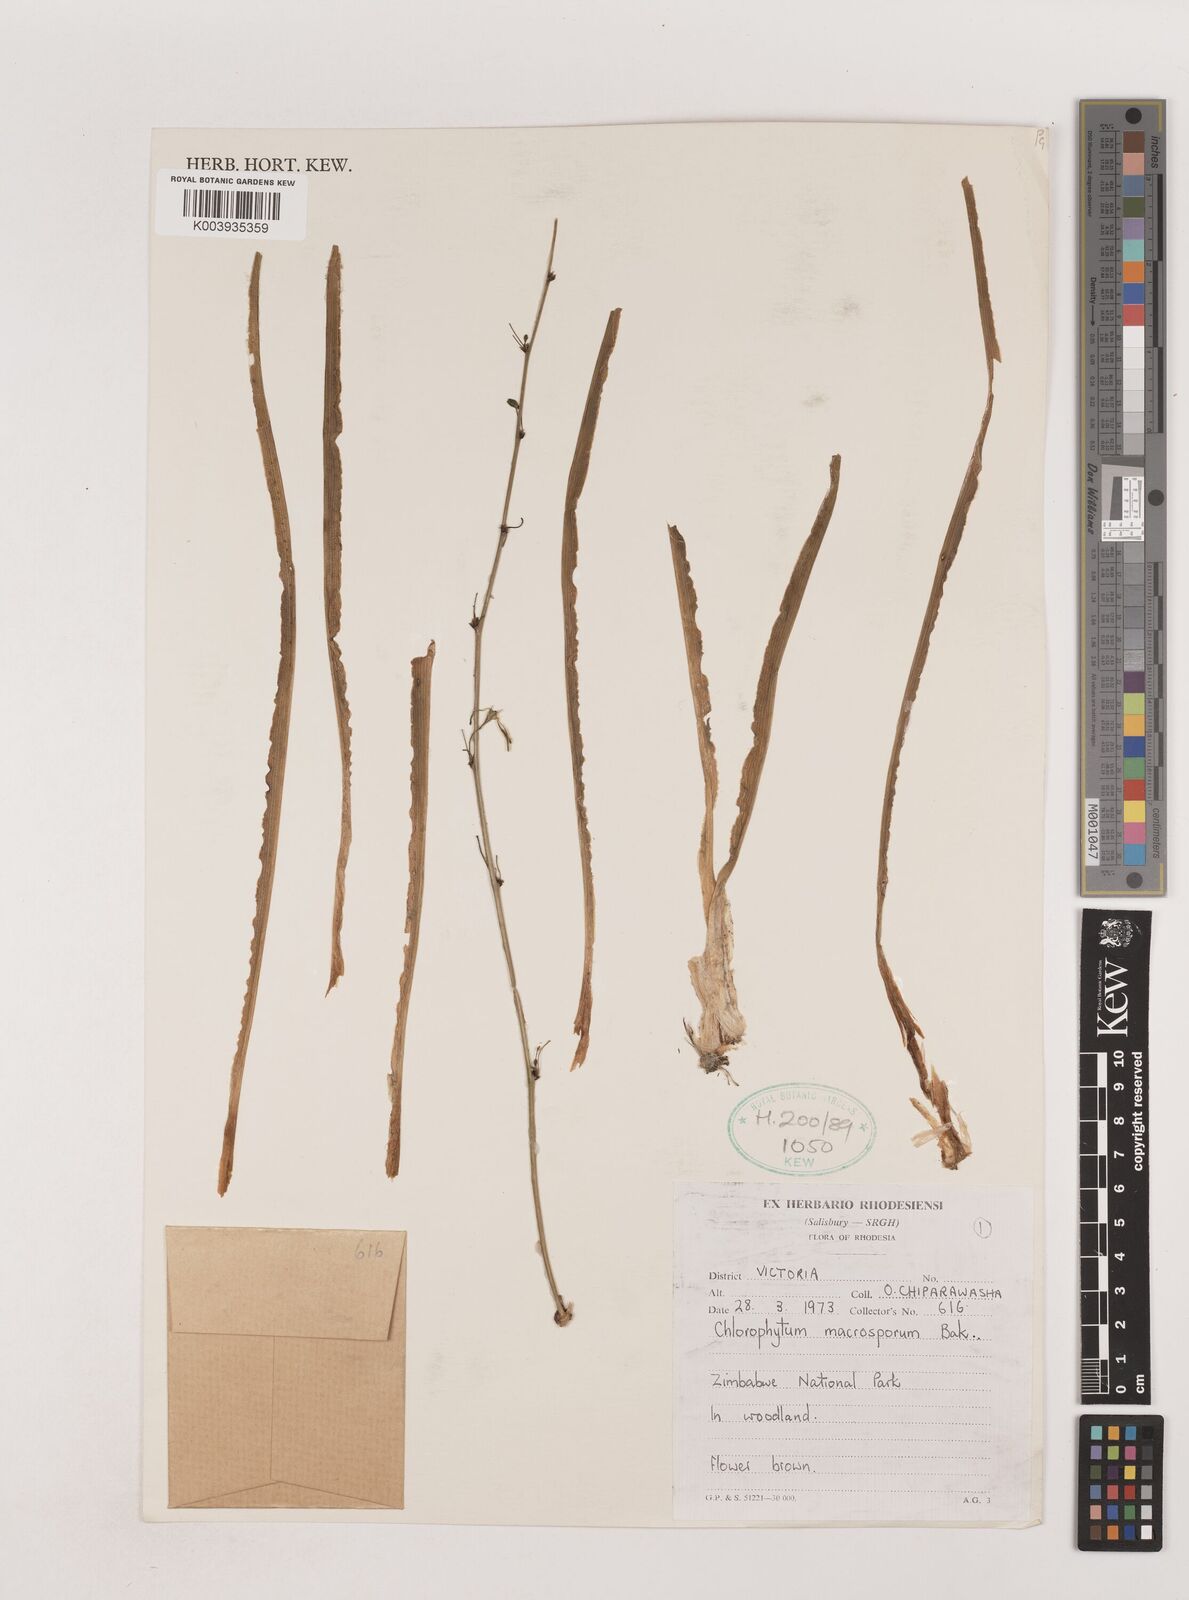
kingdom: Plantae
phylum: Tracheophyta
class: Liliopsida
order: Asparagales
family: Asparagaceae
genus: Chlorophytum
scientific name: Chlorophytum macrosporum
